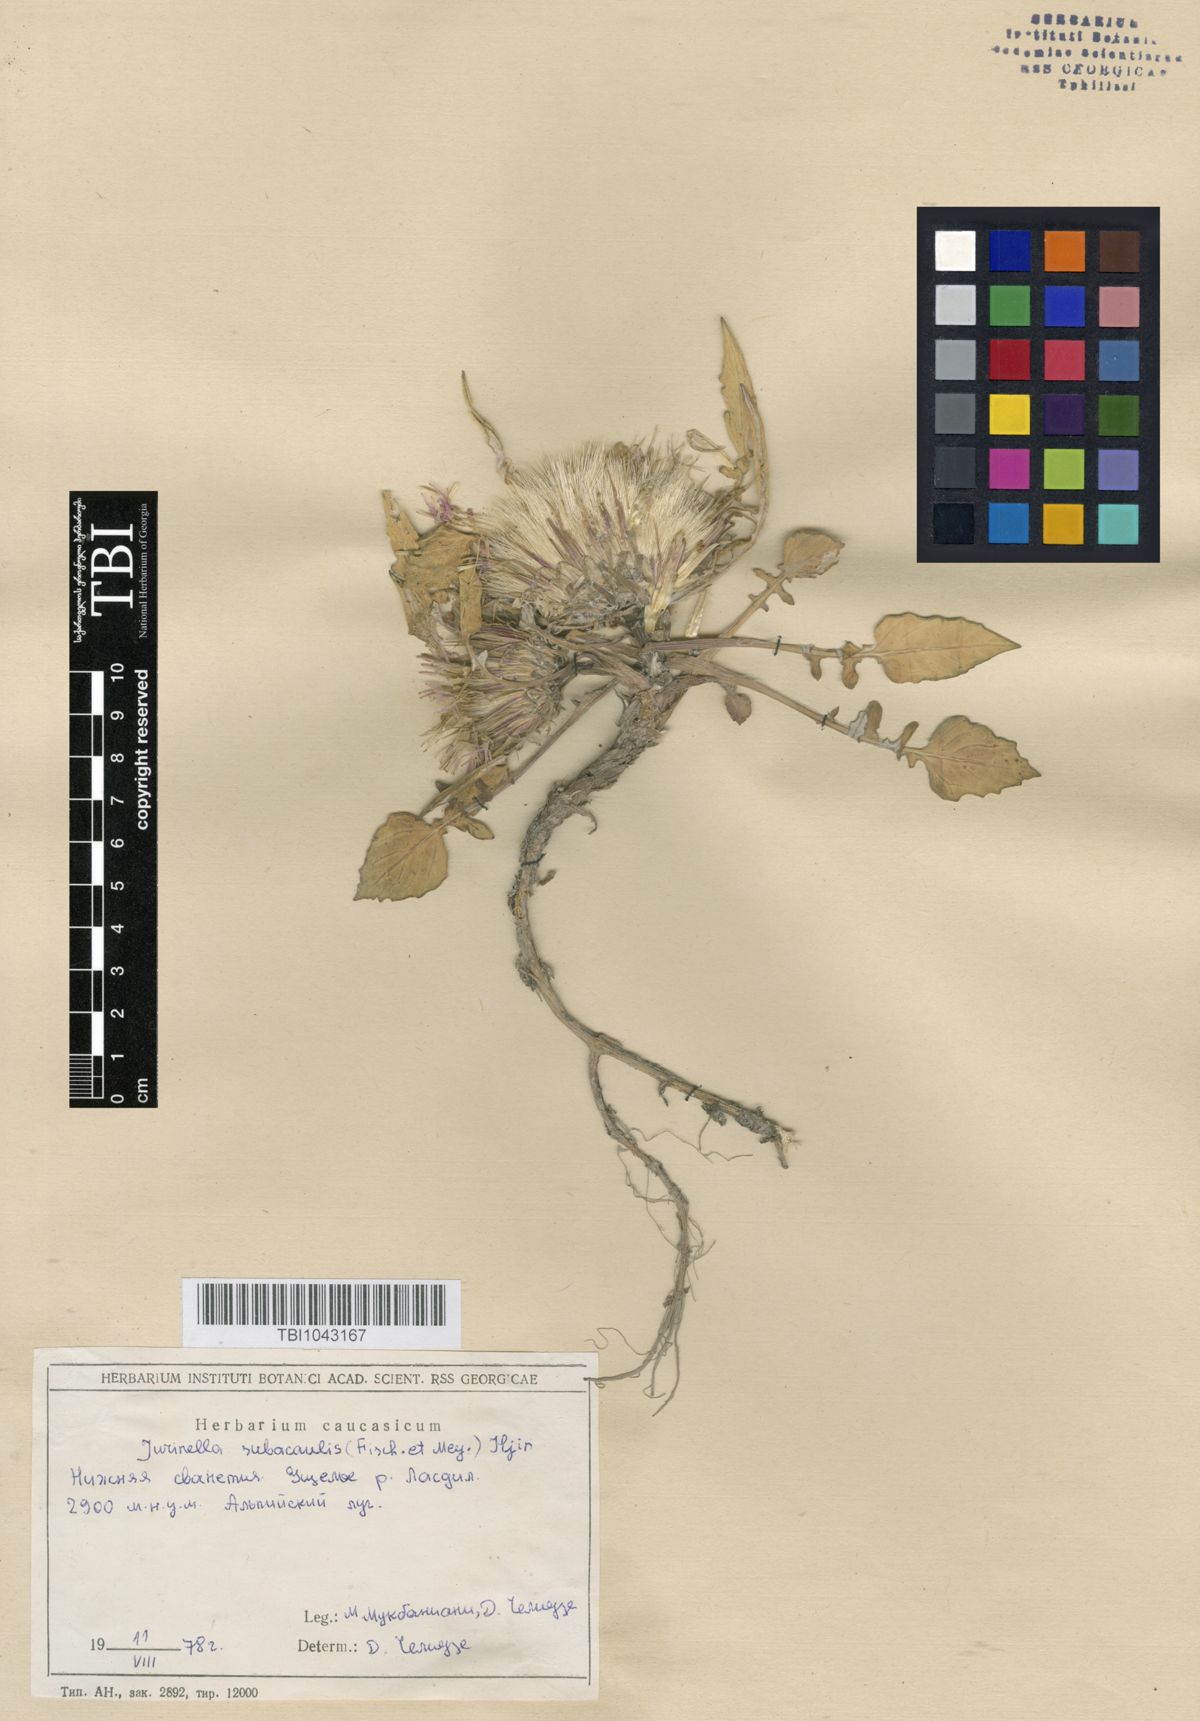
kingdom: Plantae
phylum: Tracheophyta
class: Magnoliopsida
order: Asterales
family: Asteraceae
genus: Jurinea
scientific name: Jurinea moschus
